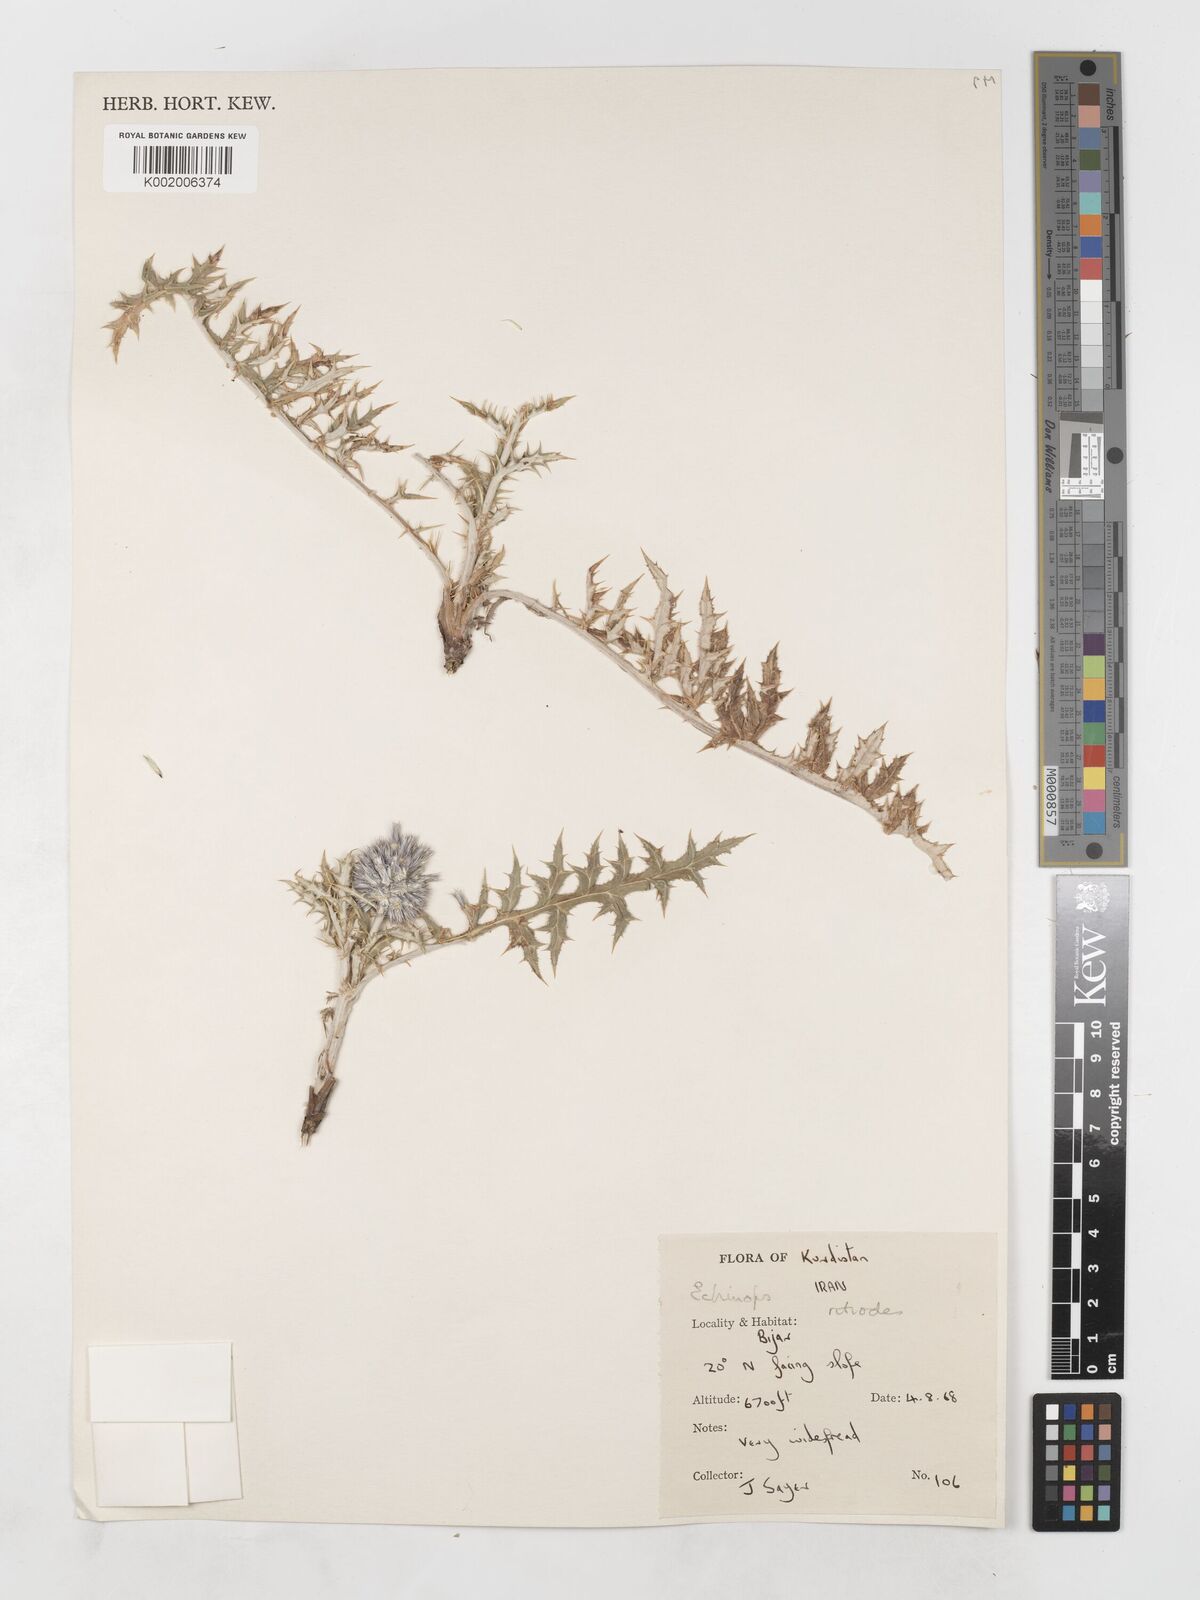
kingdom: Plantae
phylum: Tracheophyta
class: Magnoliopsida
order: Asterales
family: Asteraceae
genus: Echinops
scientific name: Echinops ritrodes
